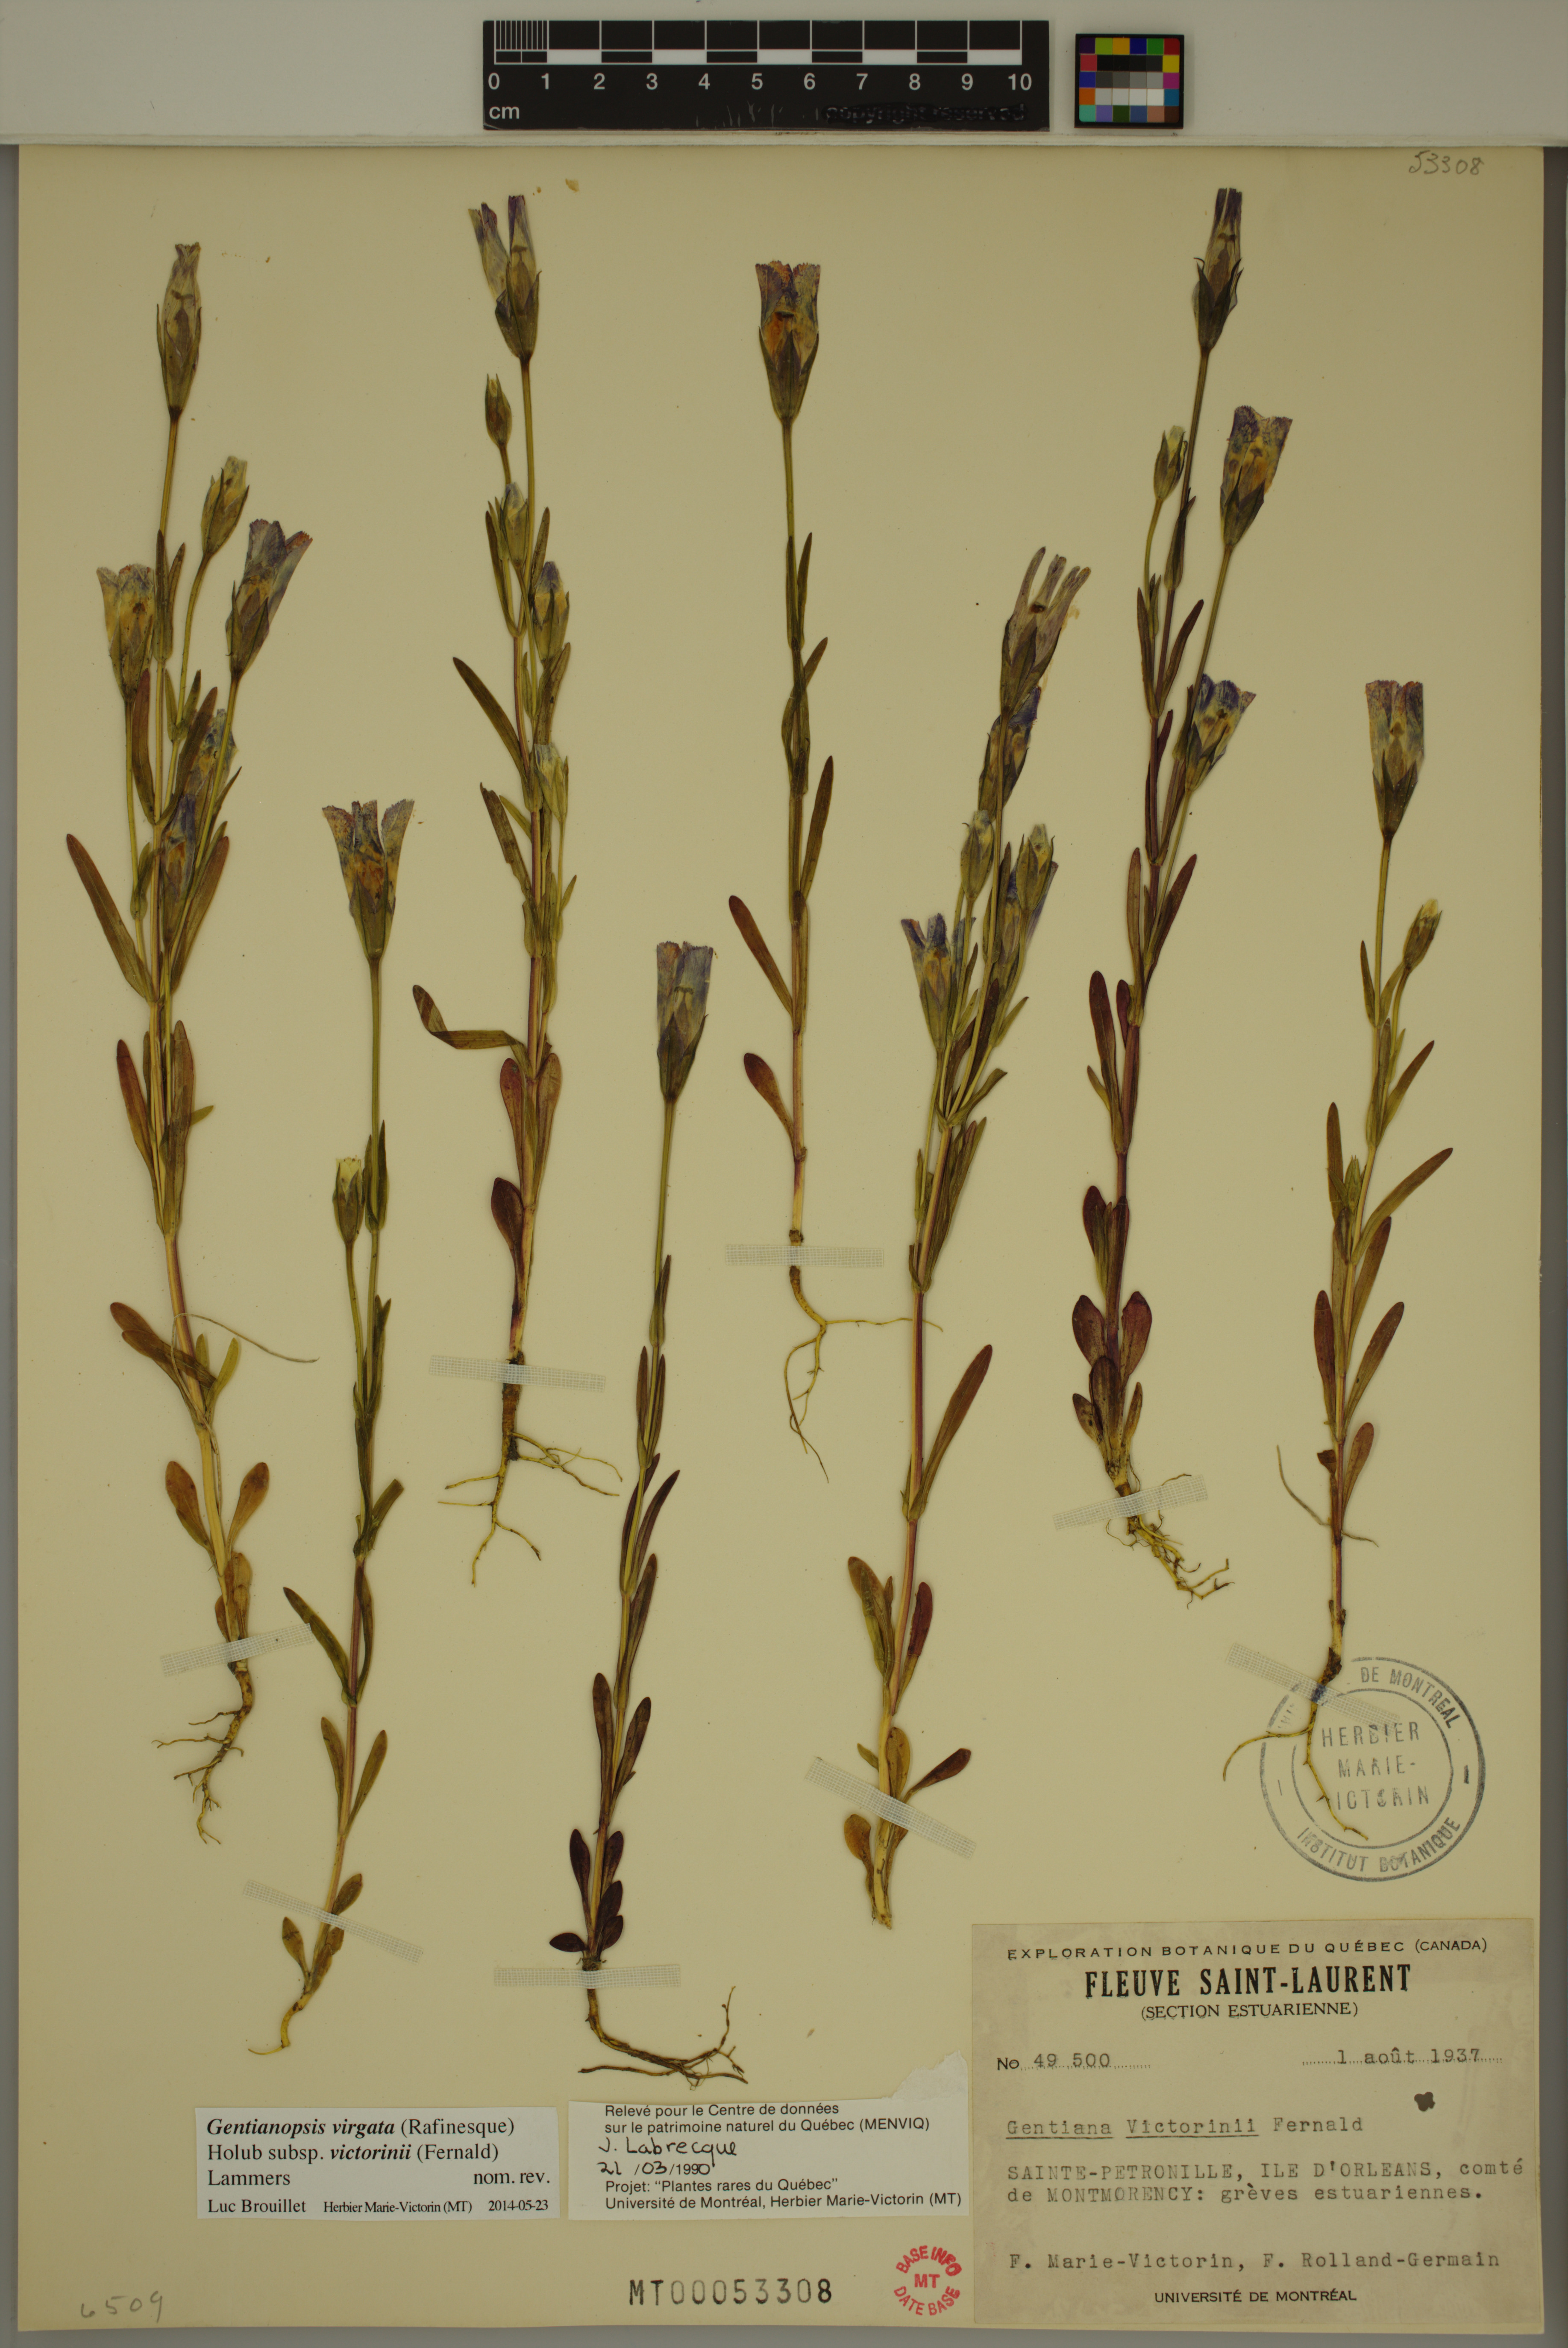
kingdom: Plantae
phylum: Tracheophyta
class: Magnoliopsida
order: Gentianales
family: Gentianaceae
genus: Gentianopsis
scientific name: Gentianopsis victorinii
